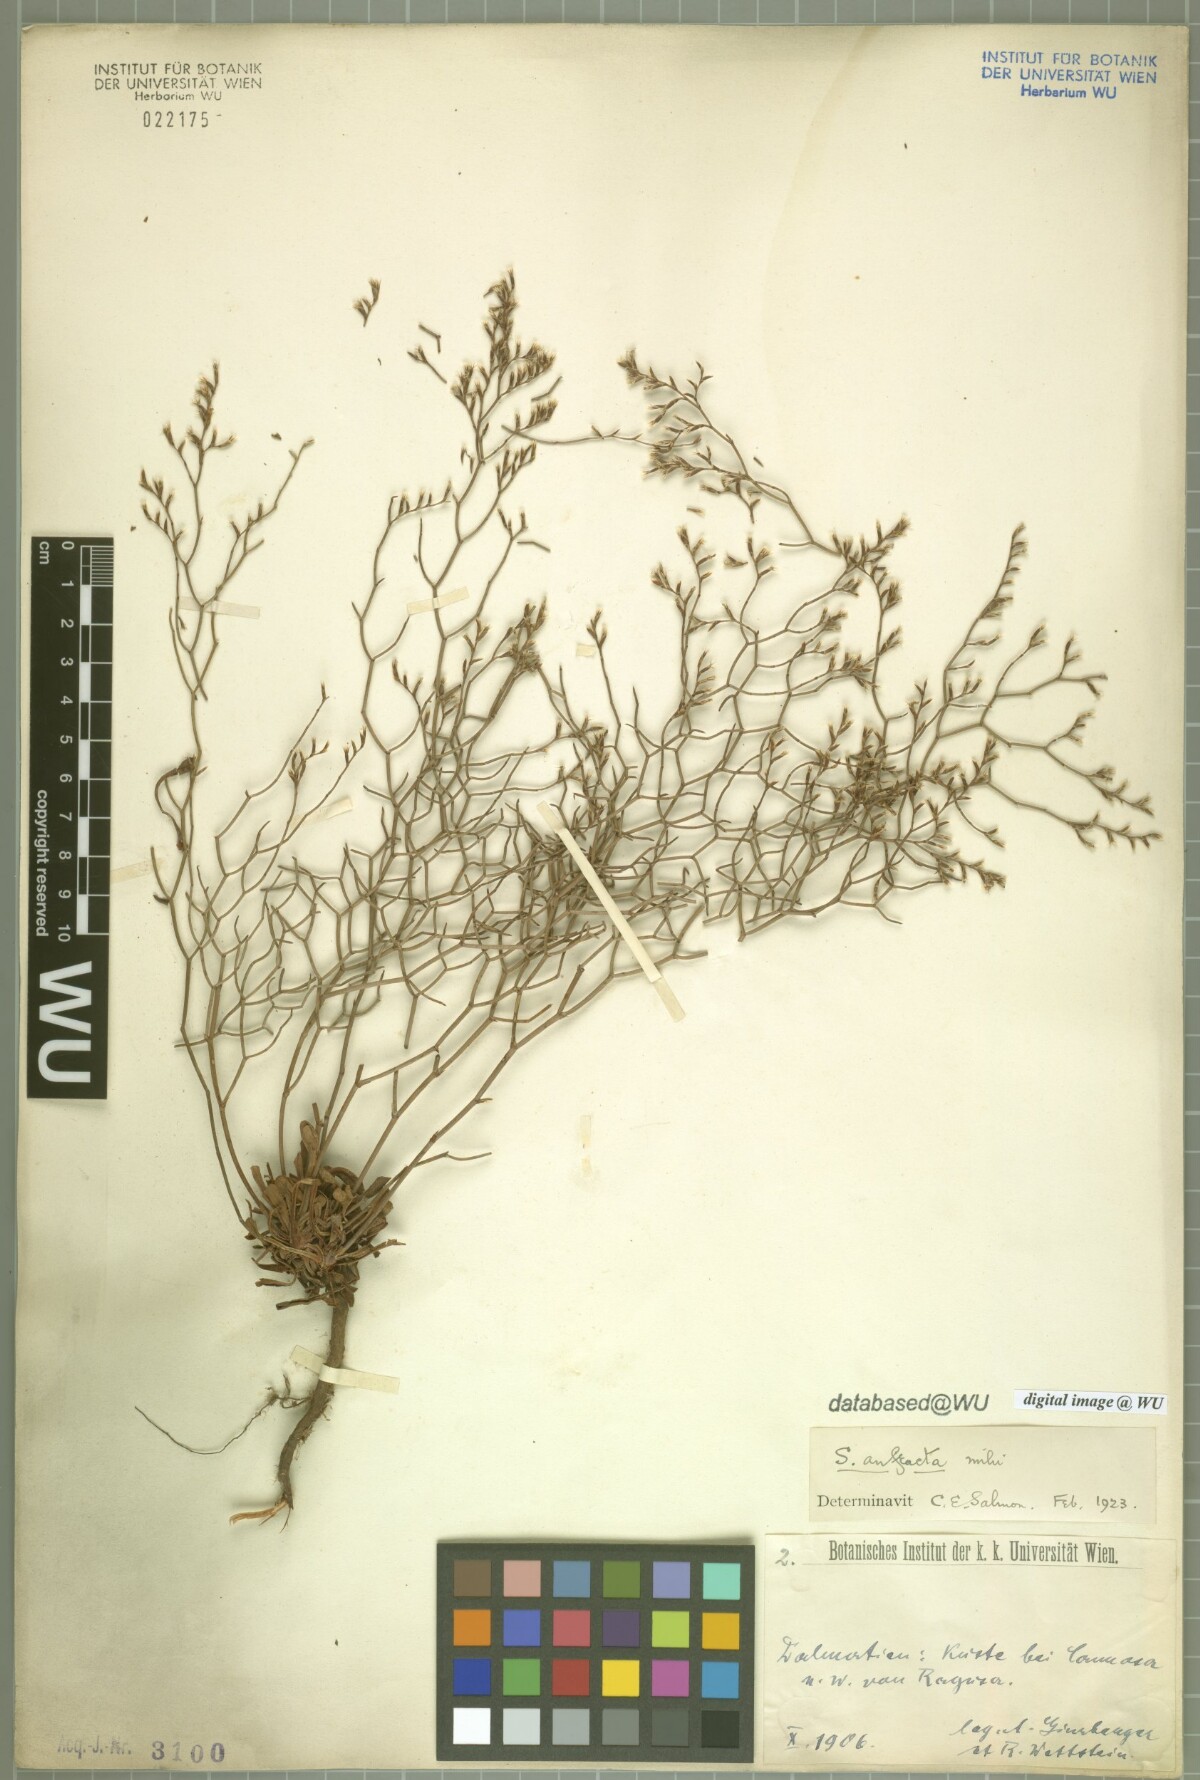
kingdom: Plantae
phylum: Tracheophyta
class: Magnoliopsida
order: Caryophyllales
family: Plumbaginaceae
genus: Limonium
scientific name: Limonium dictyophorum
